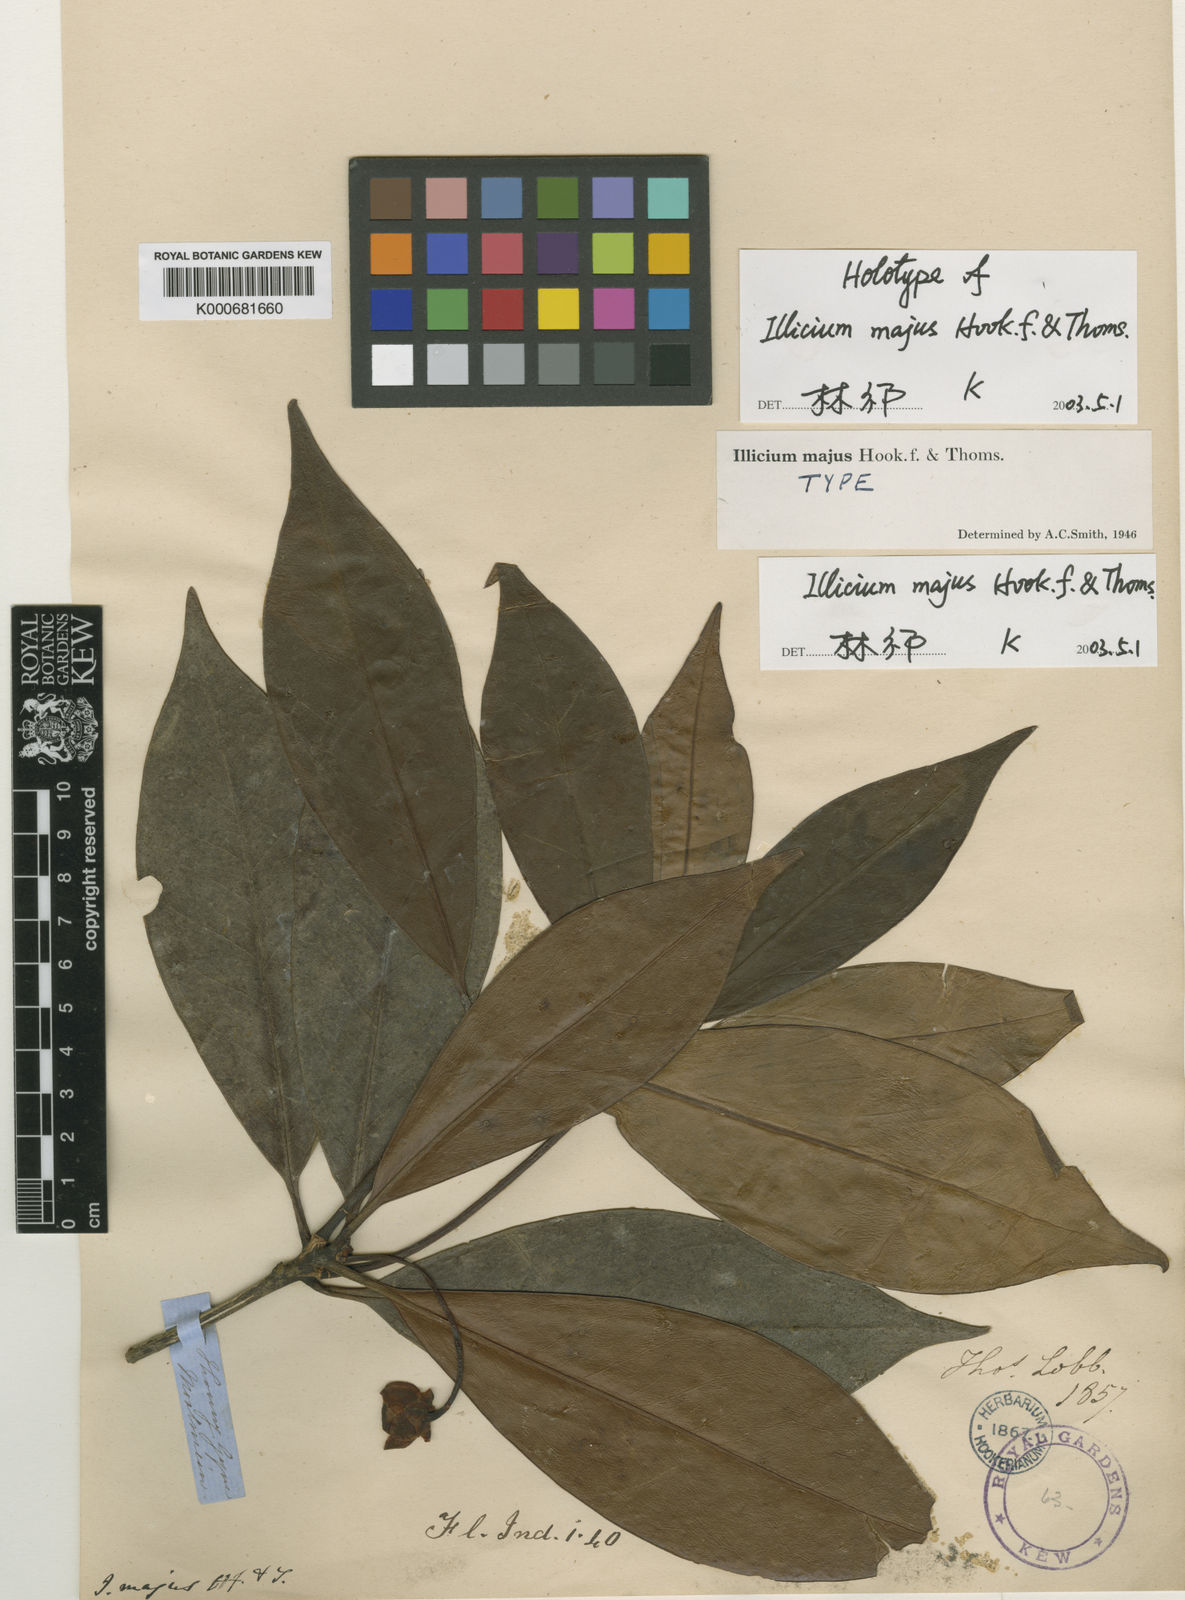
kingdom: Plantae
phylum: Tracheophyta
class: Magnoliopsida
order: Austrobaileyales
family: Schisandraceae
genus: Illicium
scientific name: Illicium
